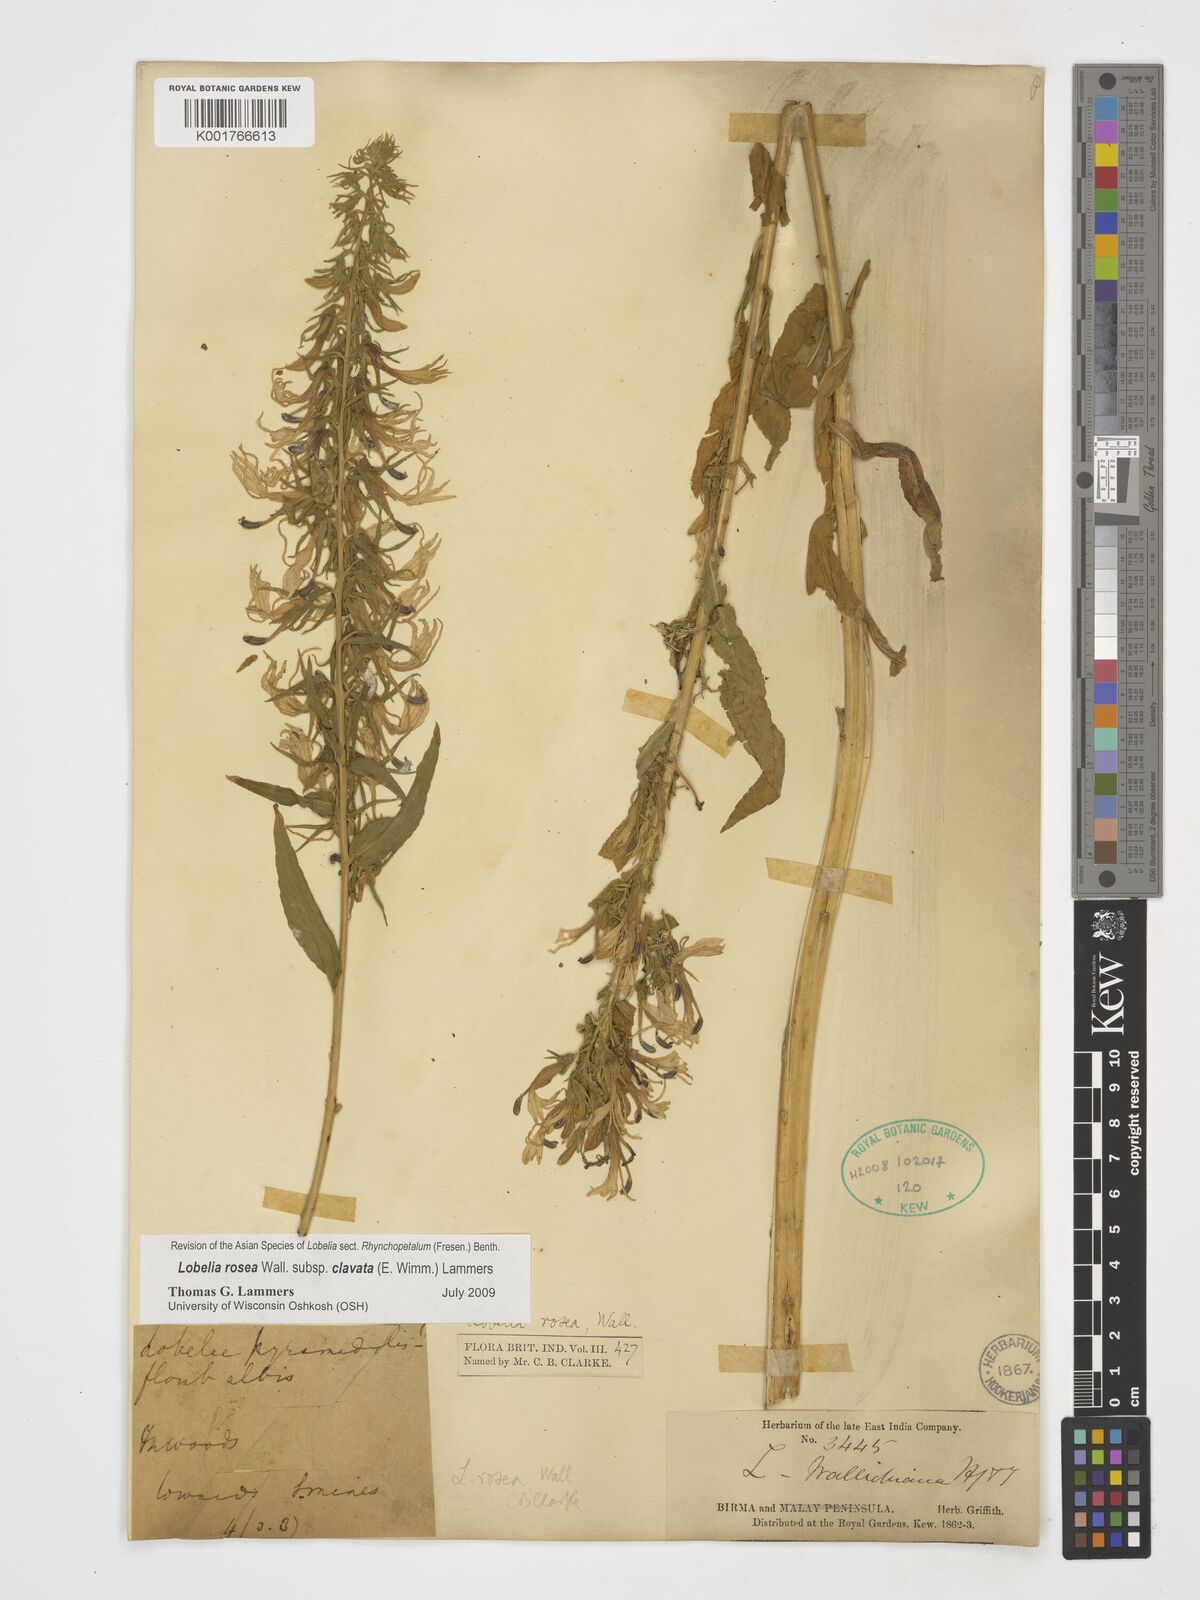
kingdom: Plantae
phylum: Tracheophyta
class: Magnoliopsida
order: Asterales
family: Campanulaceae
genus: Lobelia
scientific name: Lobelia rosea
